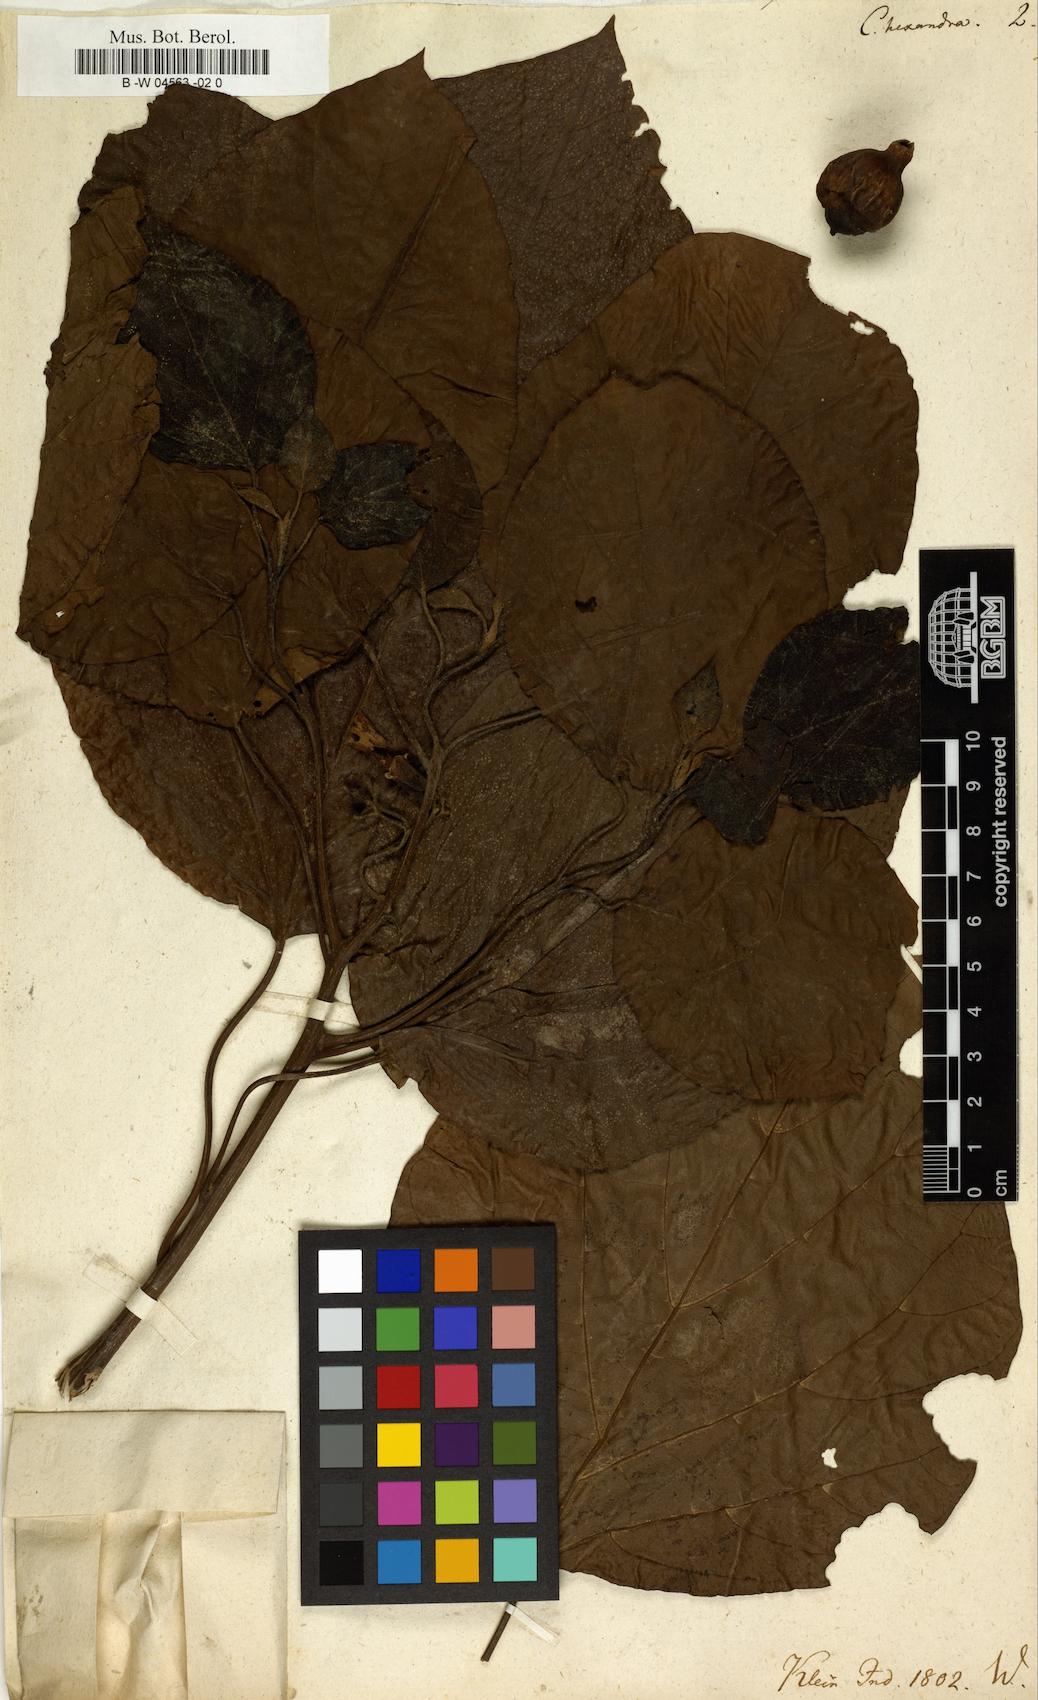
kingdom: Plantae
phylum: Tracheophyta
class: Magnoliopsida
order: Boraginales
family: Cordiaceae
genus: Cordia
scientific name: Cordia subcordata
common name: Mareer
